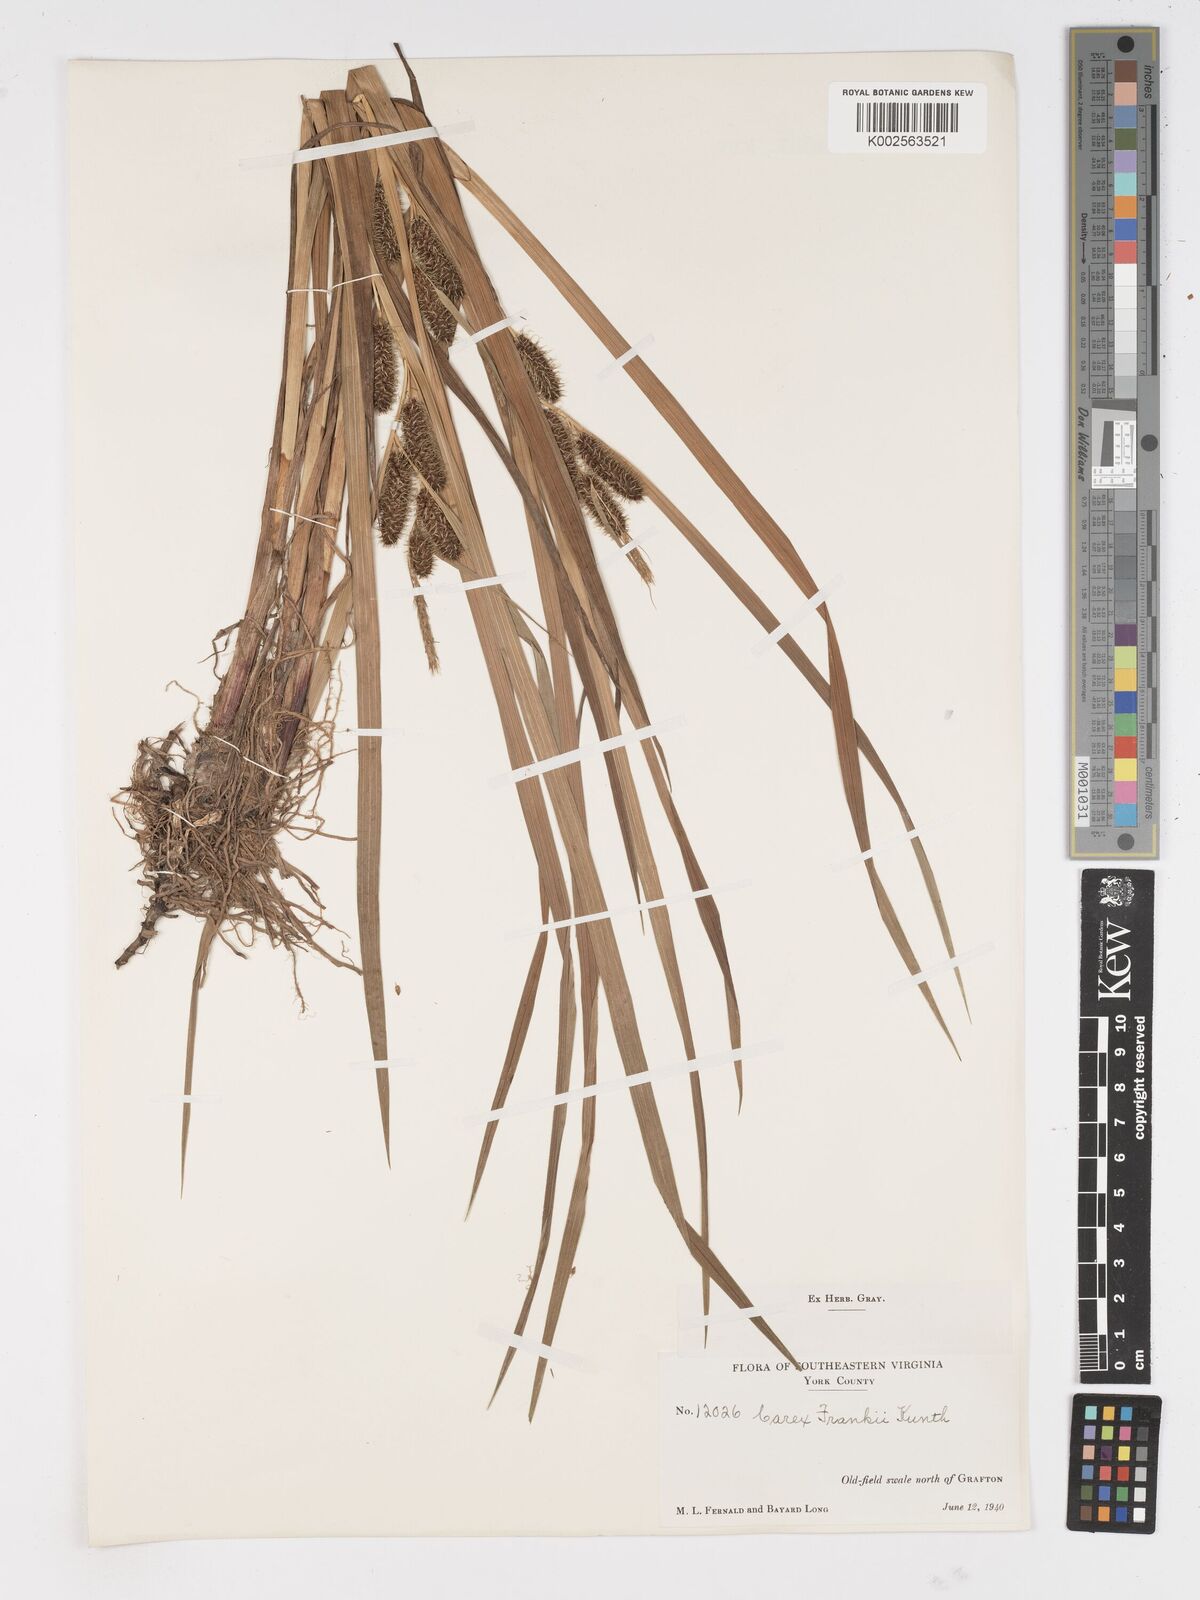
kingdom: Plantae
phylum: Tracheophyta
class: Liliopsida
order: Poales
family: Cyperaceae
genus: Carex
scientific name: Carex frankii
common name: Frank's sedge
